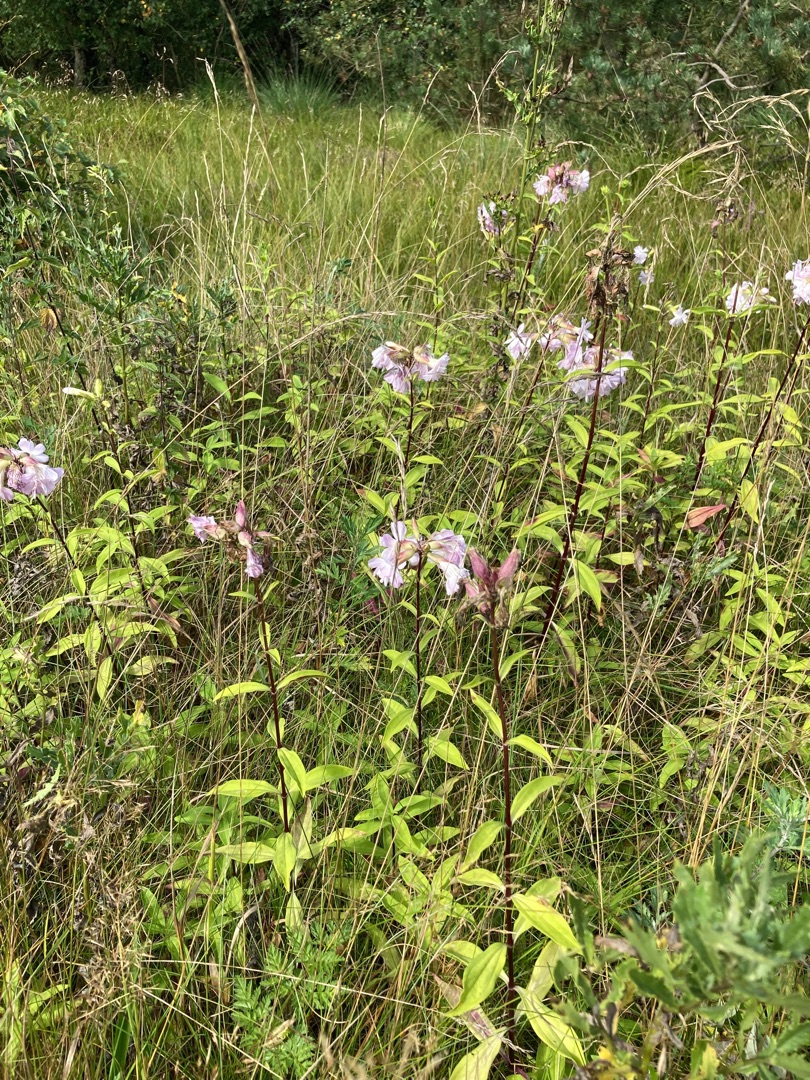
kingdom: Plantae
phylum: Tracheophyta
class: Magnoliopsida
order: Caryophyllales
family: Caryophyllaceae
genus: Saponaria
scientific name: Saponaria officinalis
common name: Sæbeurt
